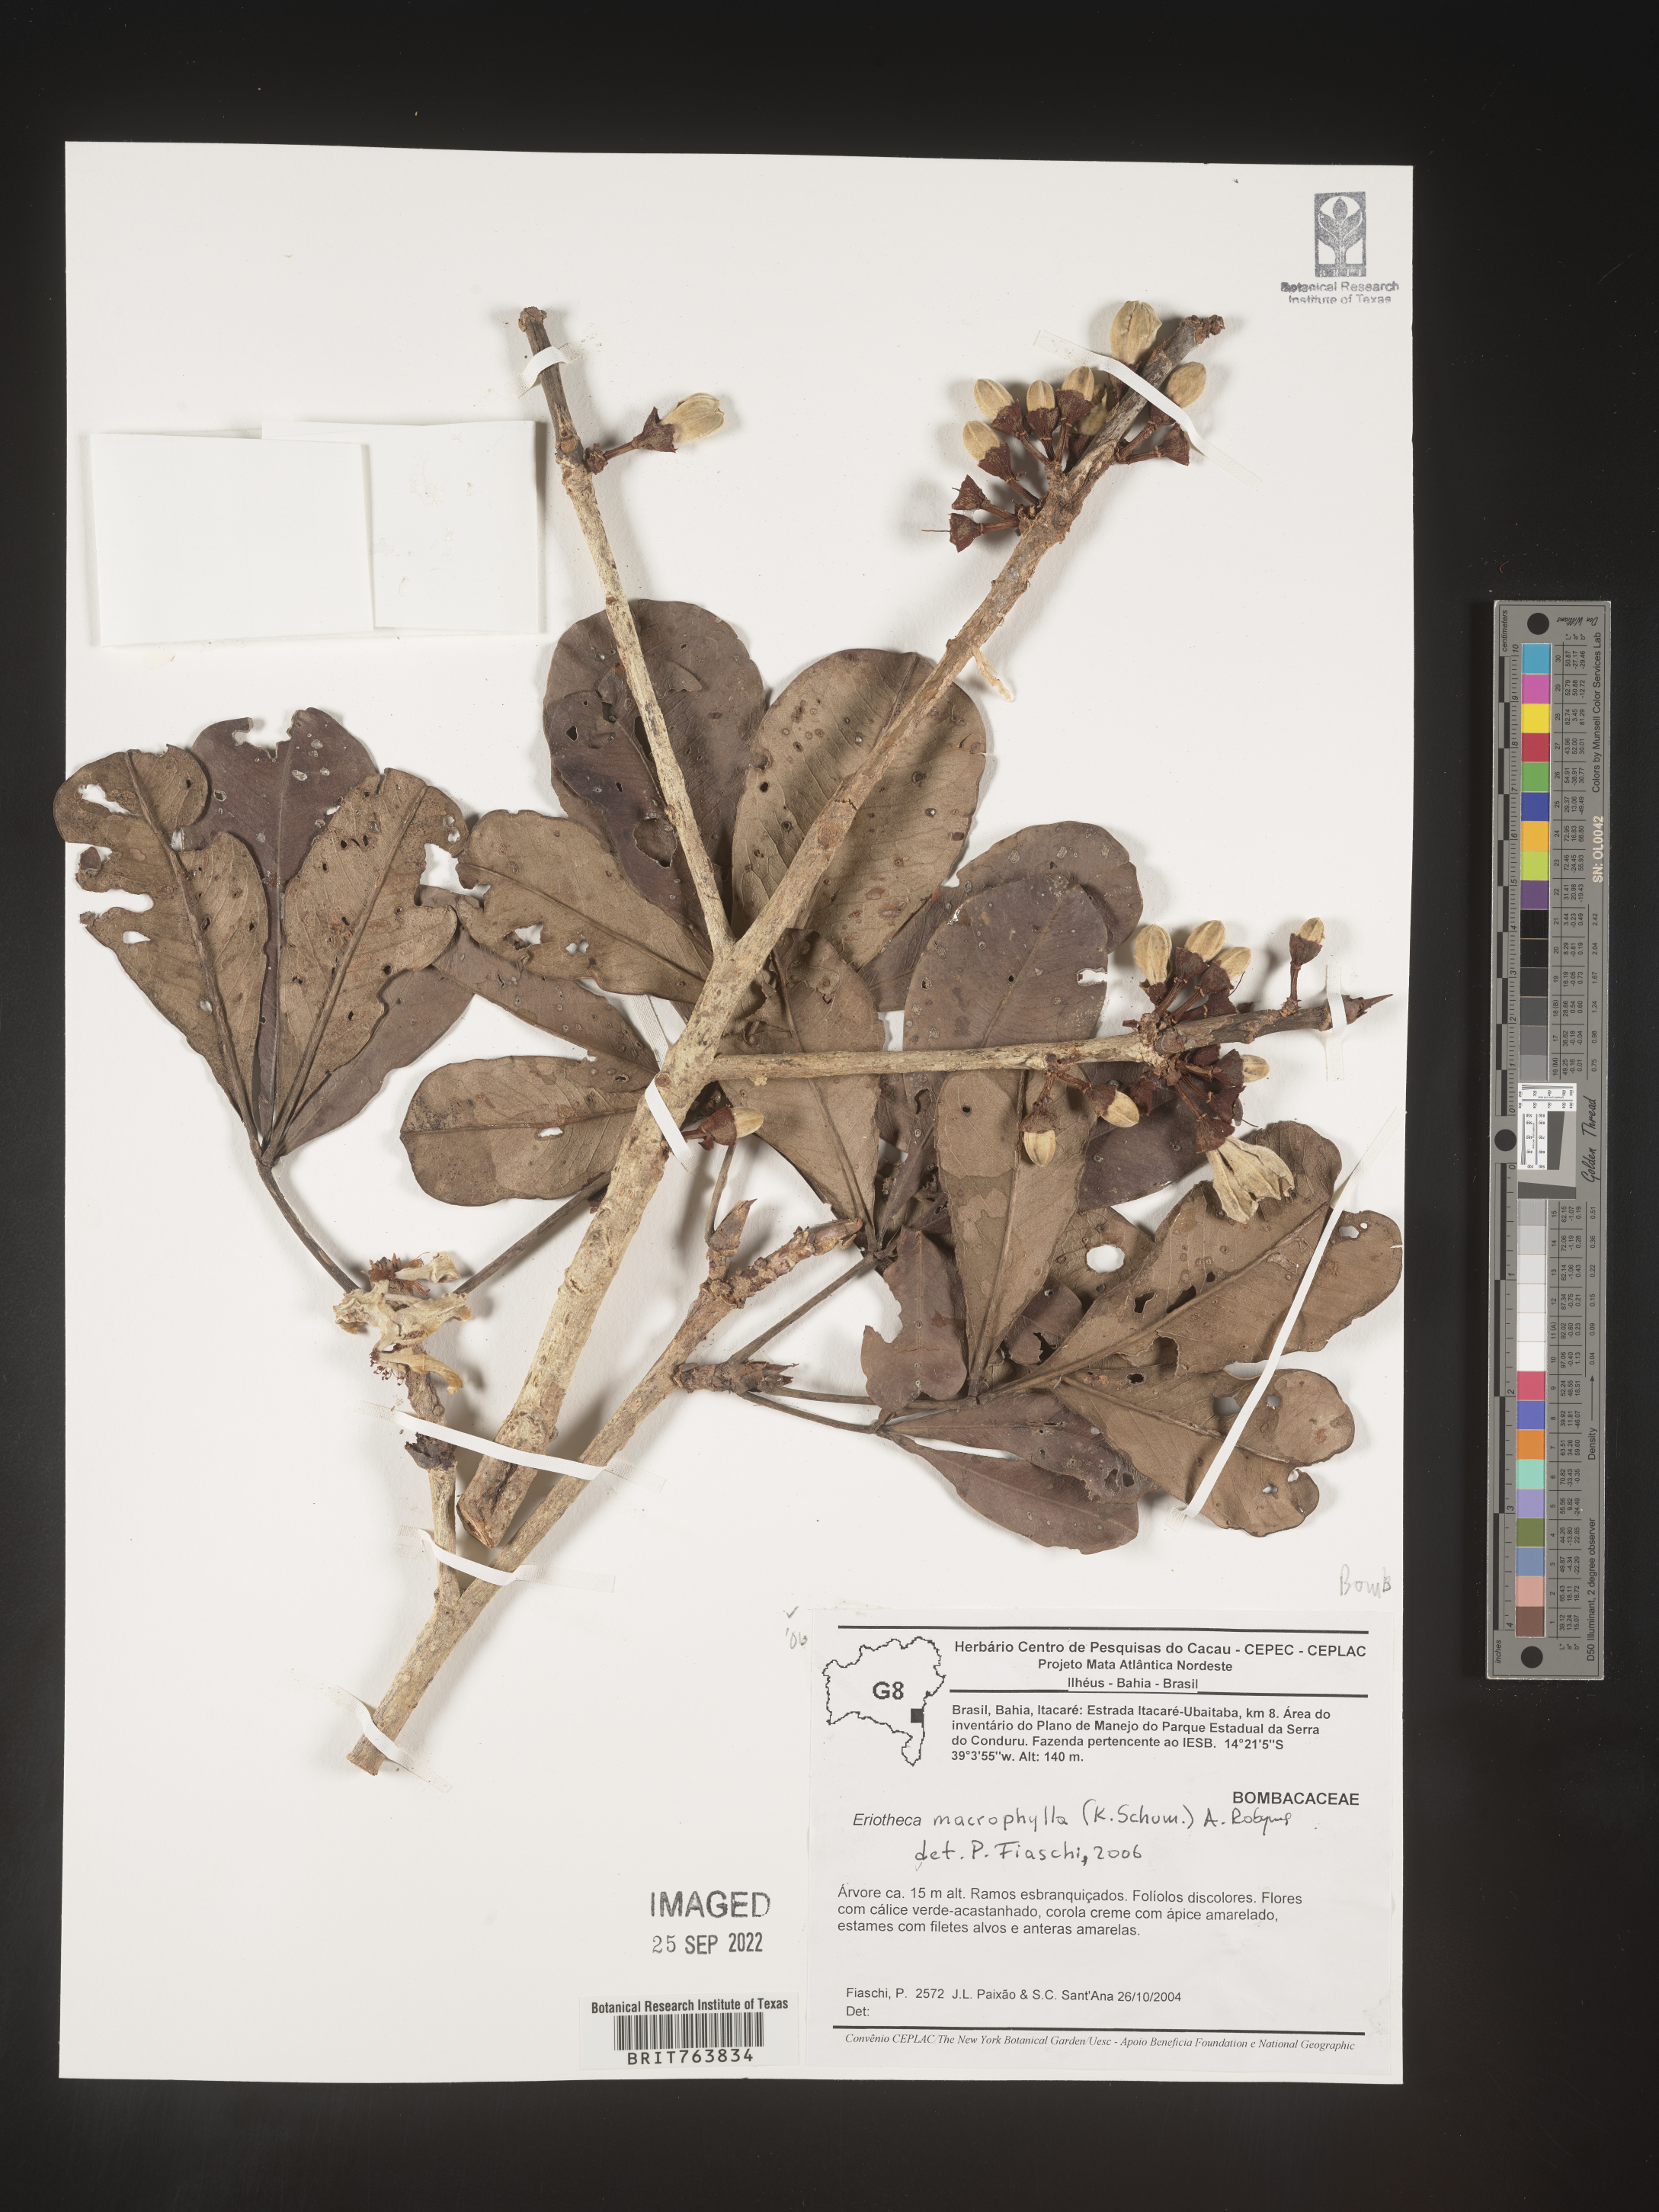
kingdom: Plantae
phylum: Tracheophyta
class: Magnoliopsida
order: Malvales
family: Malvaceae
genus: Eriotheca
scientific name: Eriotheca
